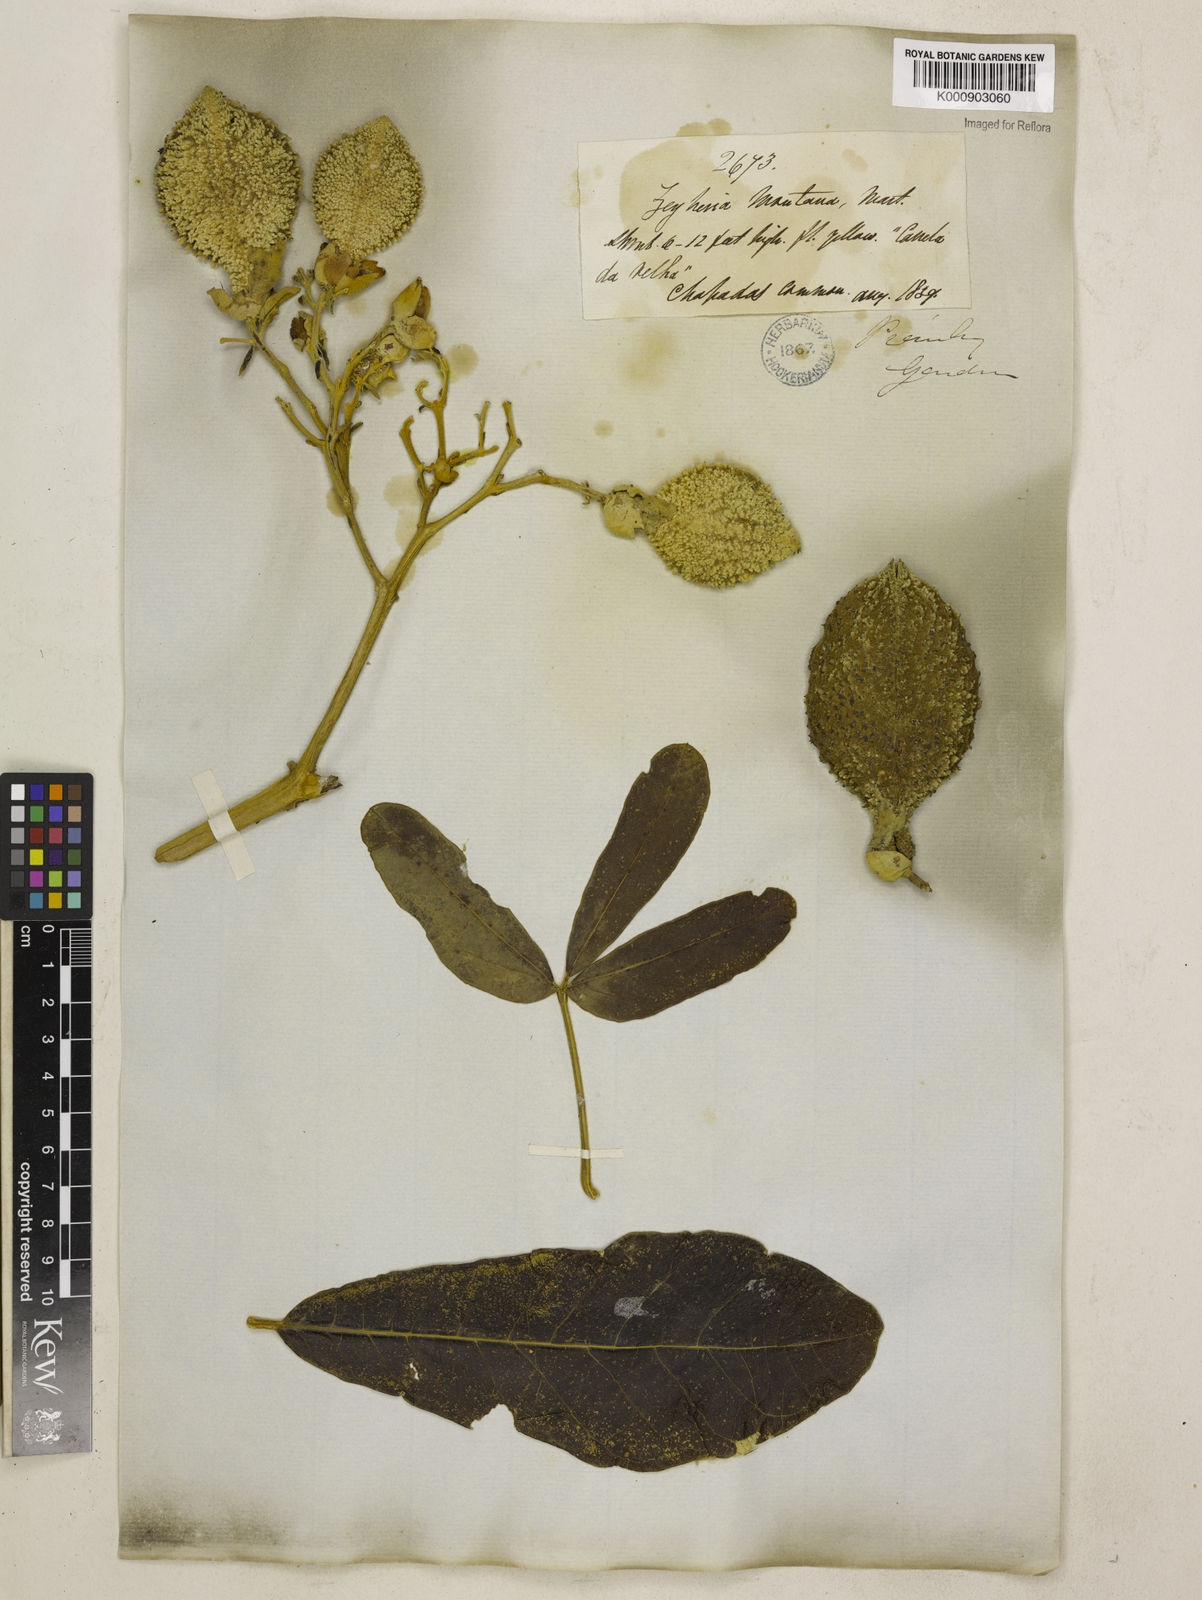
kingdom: Plantae
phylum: Tracheophyta
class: Magnoliopsida
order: Lamiales
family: Bignoniaceae
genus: Zeyheria
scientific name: Zeyheria
